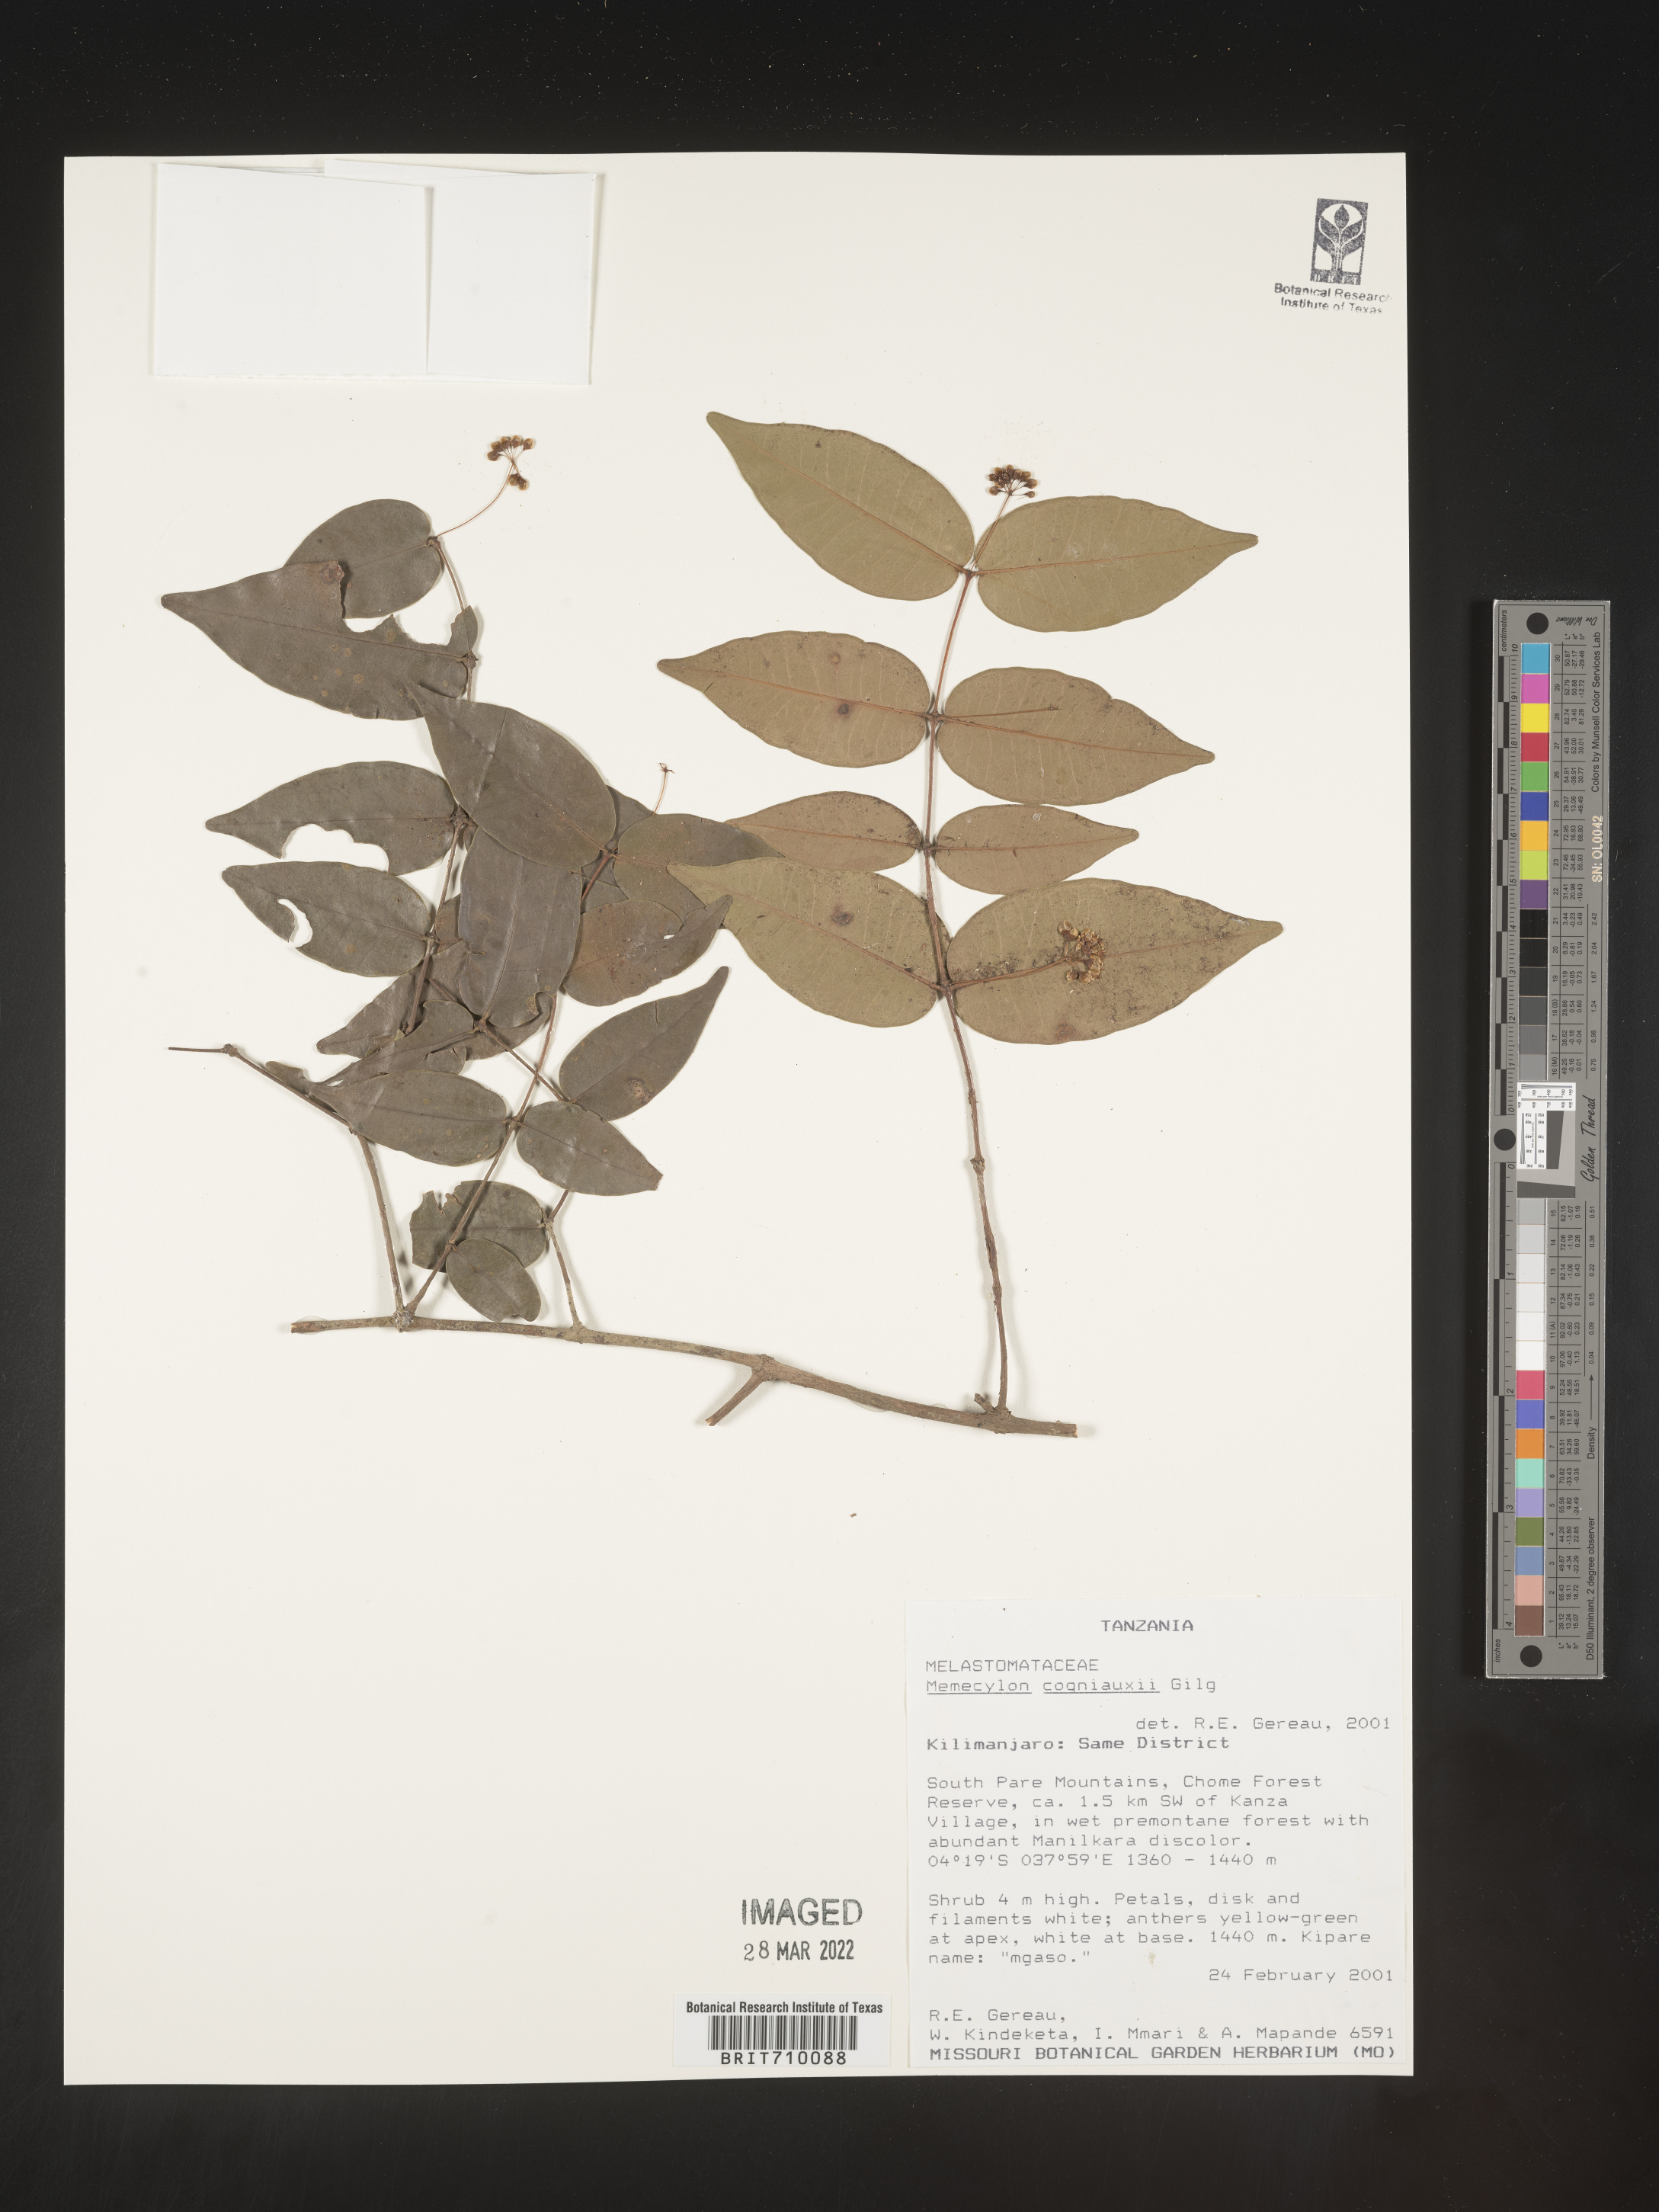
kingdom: Plantae
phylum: Tracheophyta
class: Magnoliopsida
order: Myrtales
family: Melastomataceae
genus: Memecylon
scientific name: Memecylon
